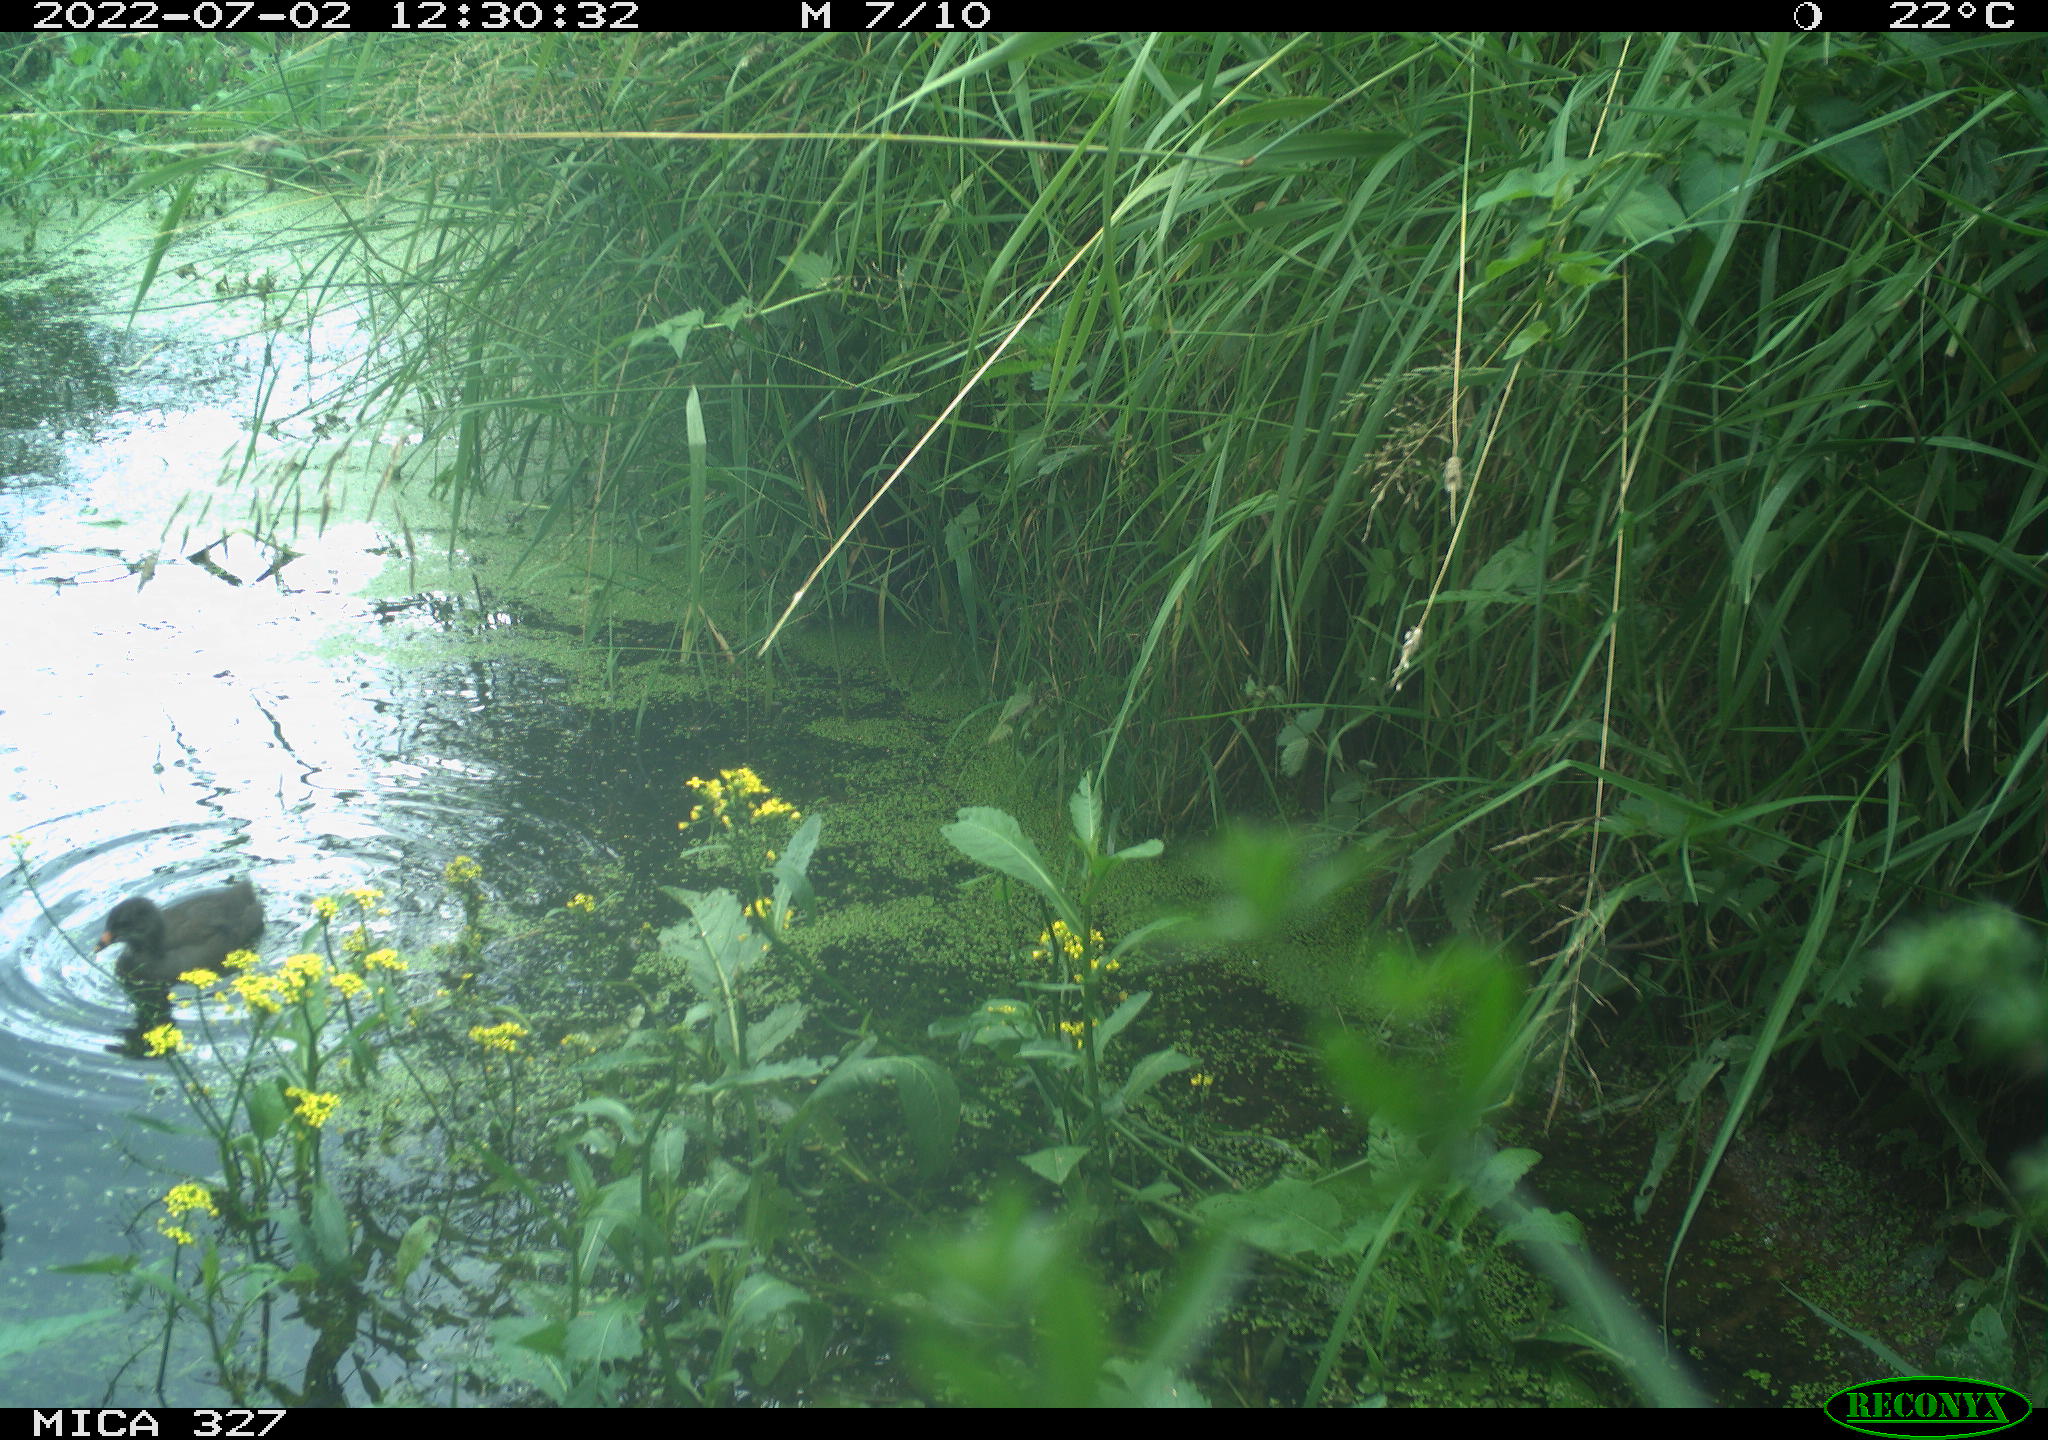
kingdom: Animalia
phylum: Chordata
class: Aves
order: Gruiformes
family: Rallidae
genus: Gallinula
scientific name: Gallinula chloropus
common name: Common moorhen
